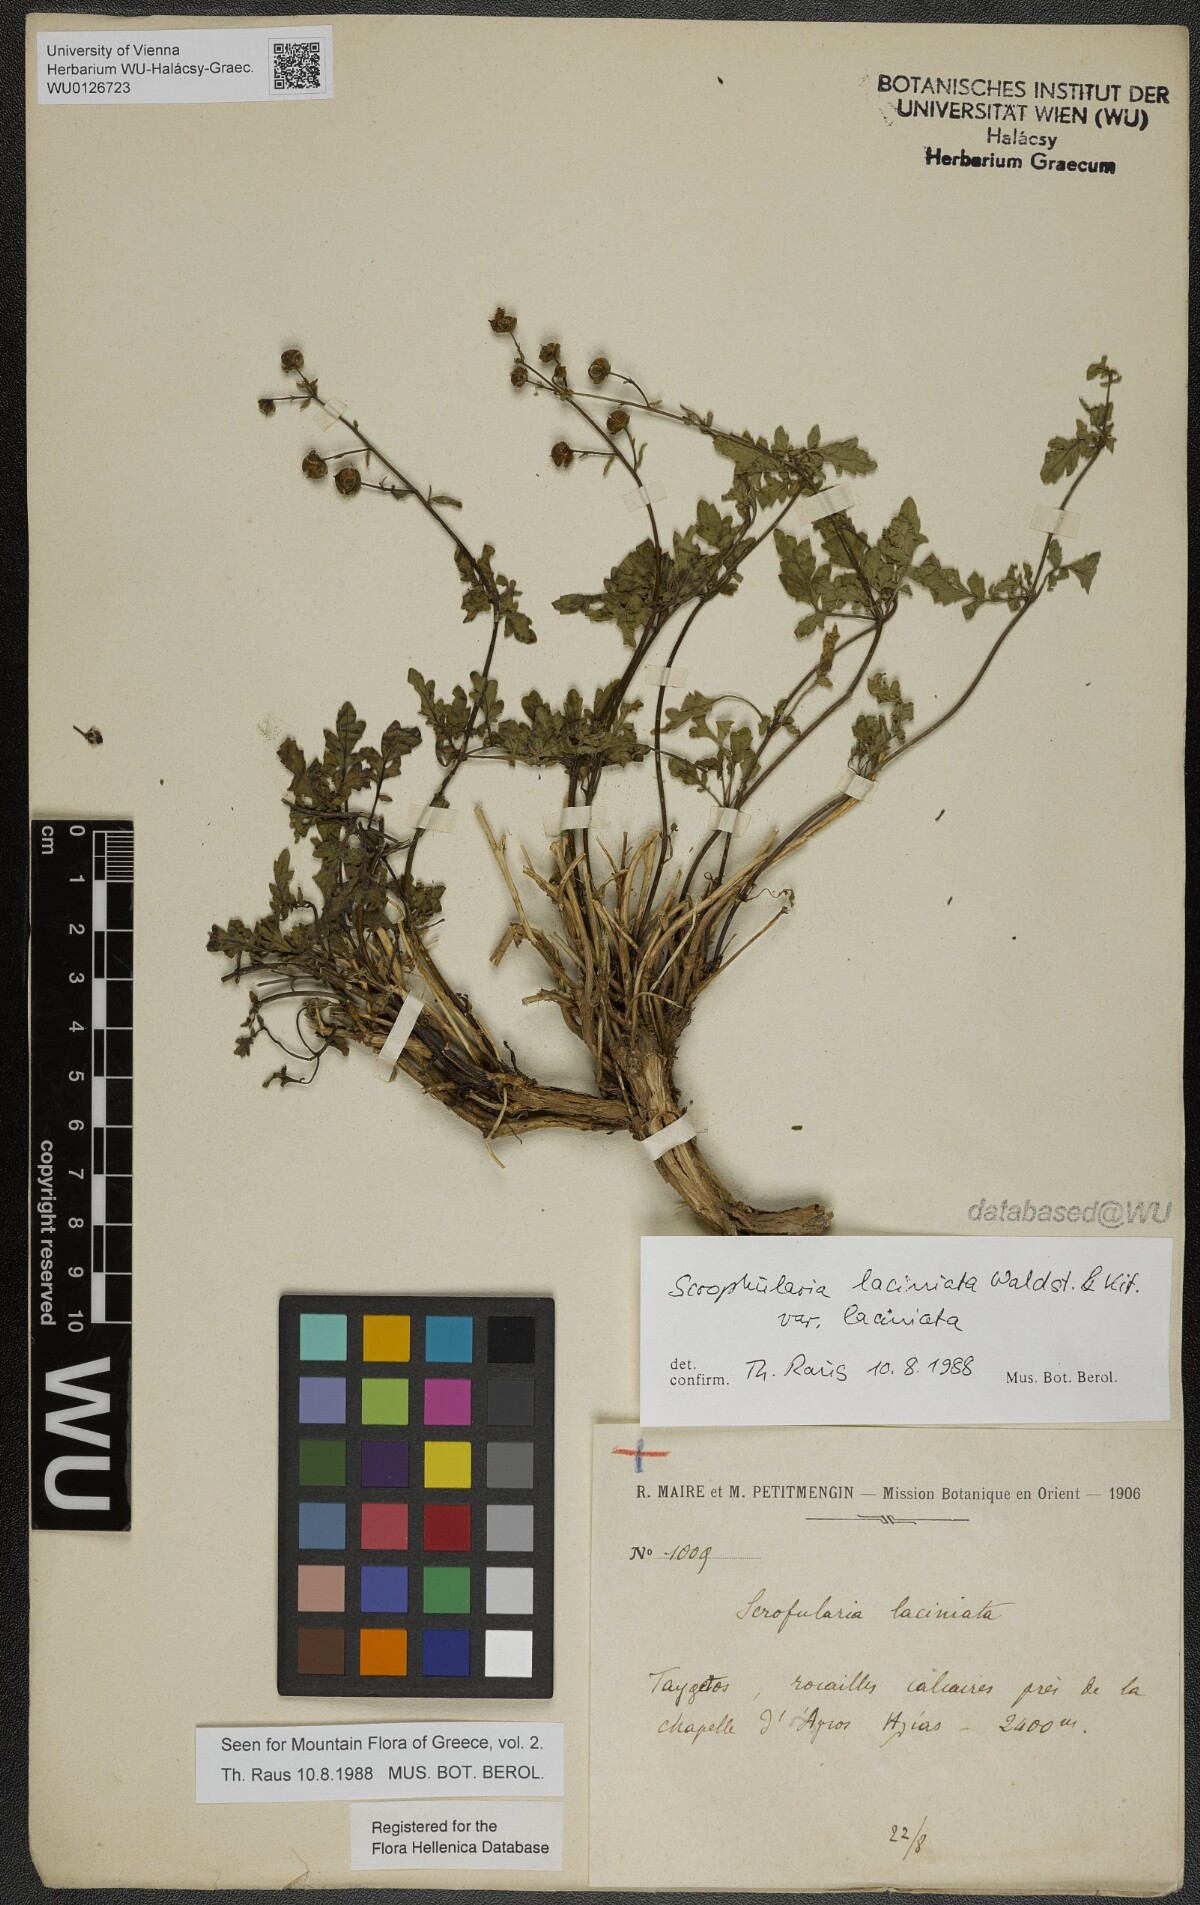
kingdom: Plantae
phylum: Tracheophyta
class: Magnoliopsida
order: Lamiales
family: Scrophulariaceae
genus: Scrophularia
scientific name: Scrophularia laciniata
